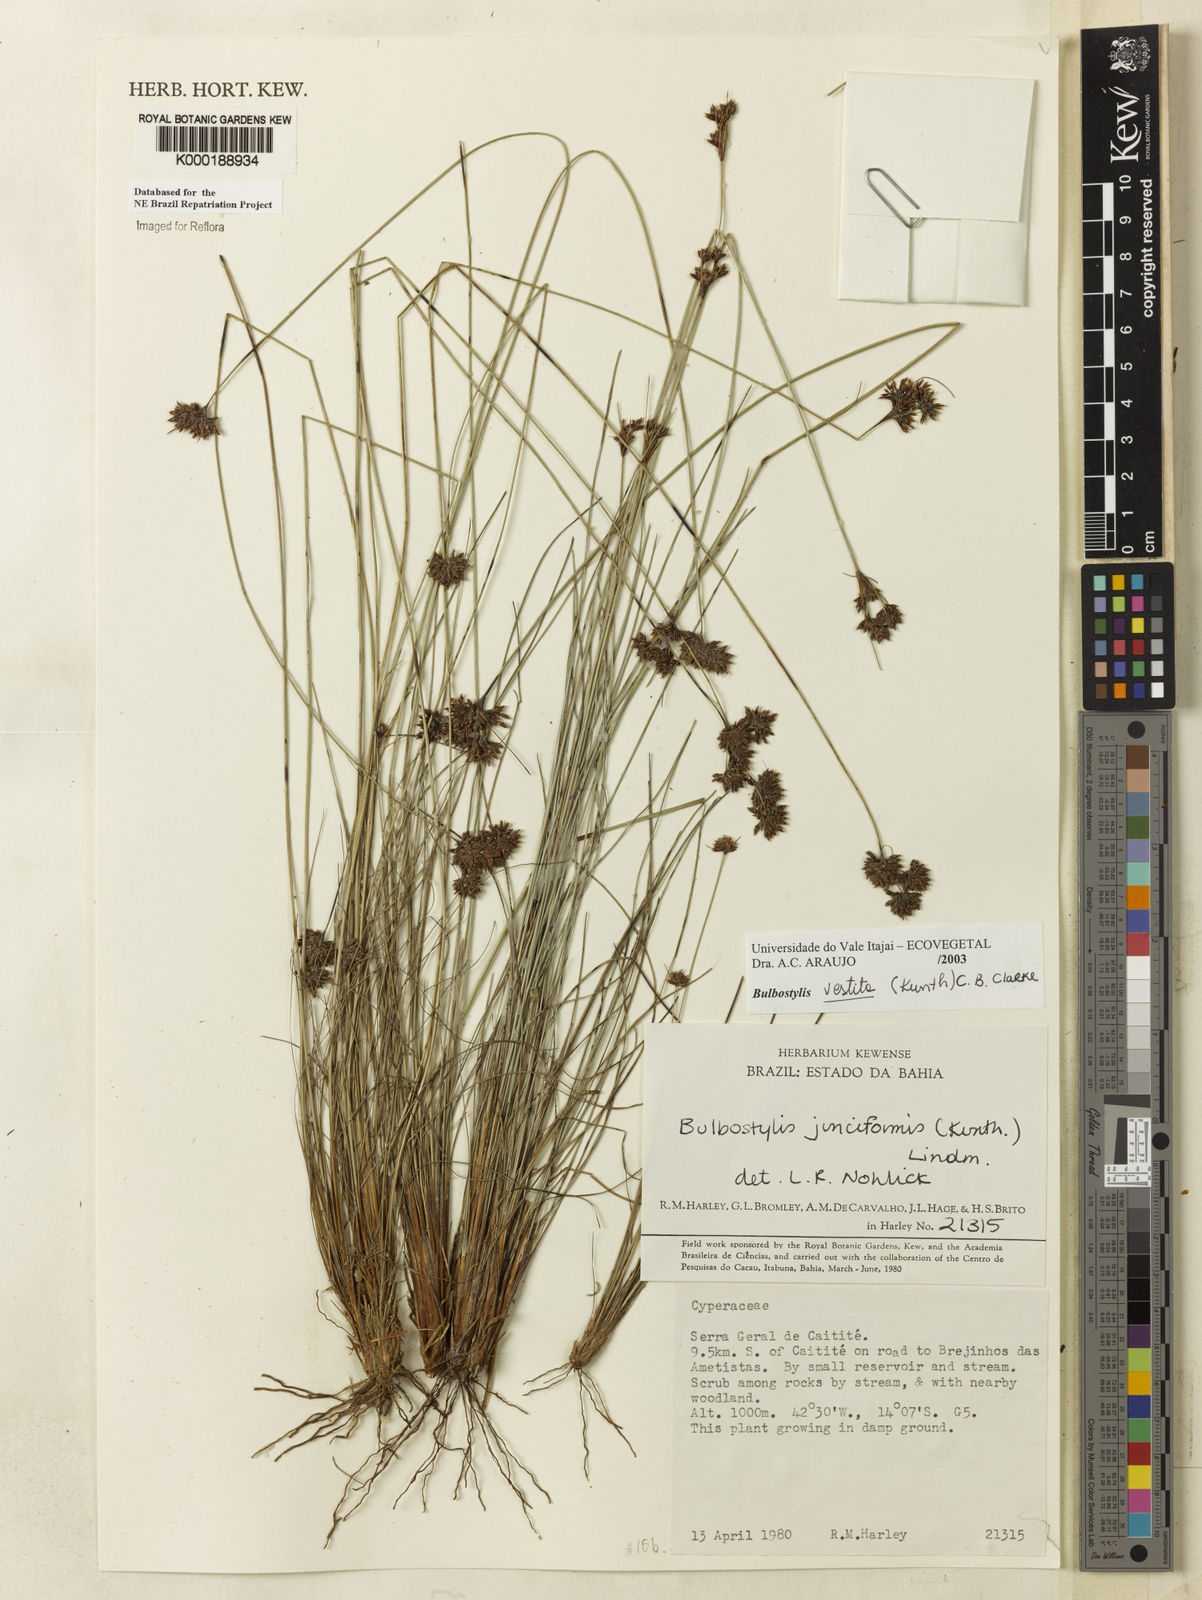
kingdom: Plantae
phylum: Tracheophyta
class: Liliopsida
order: Poales
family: Cyperaceae
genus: Bulbostylis
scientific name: Bulbostylis vestita
